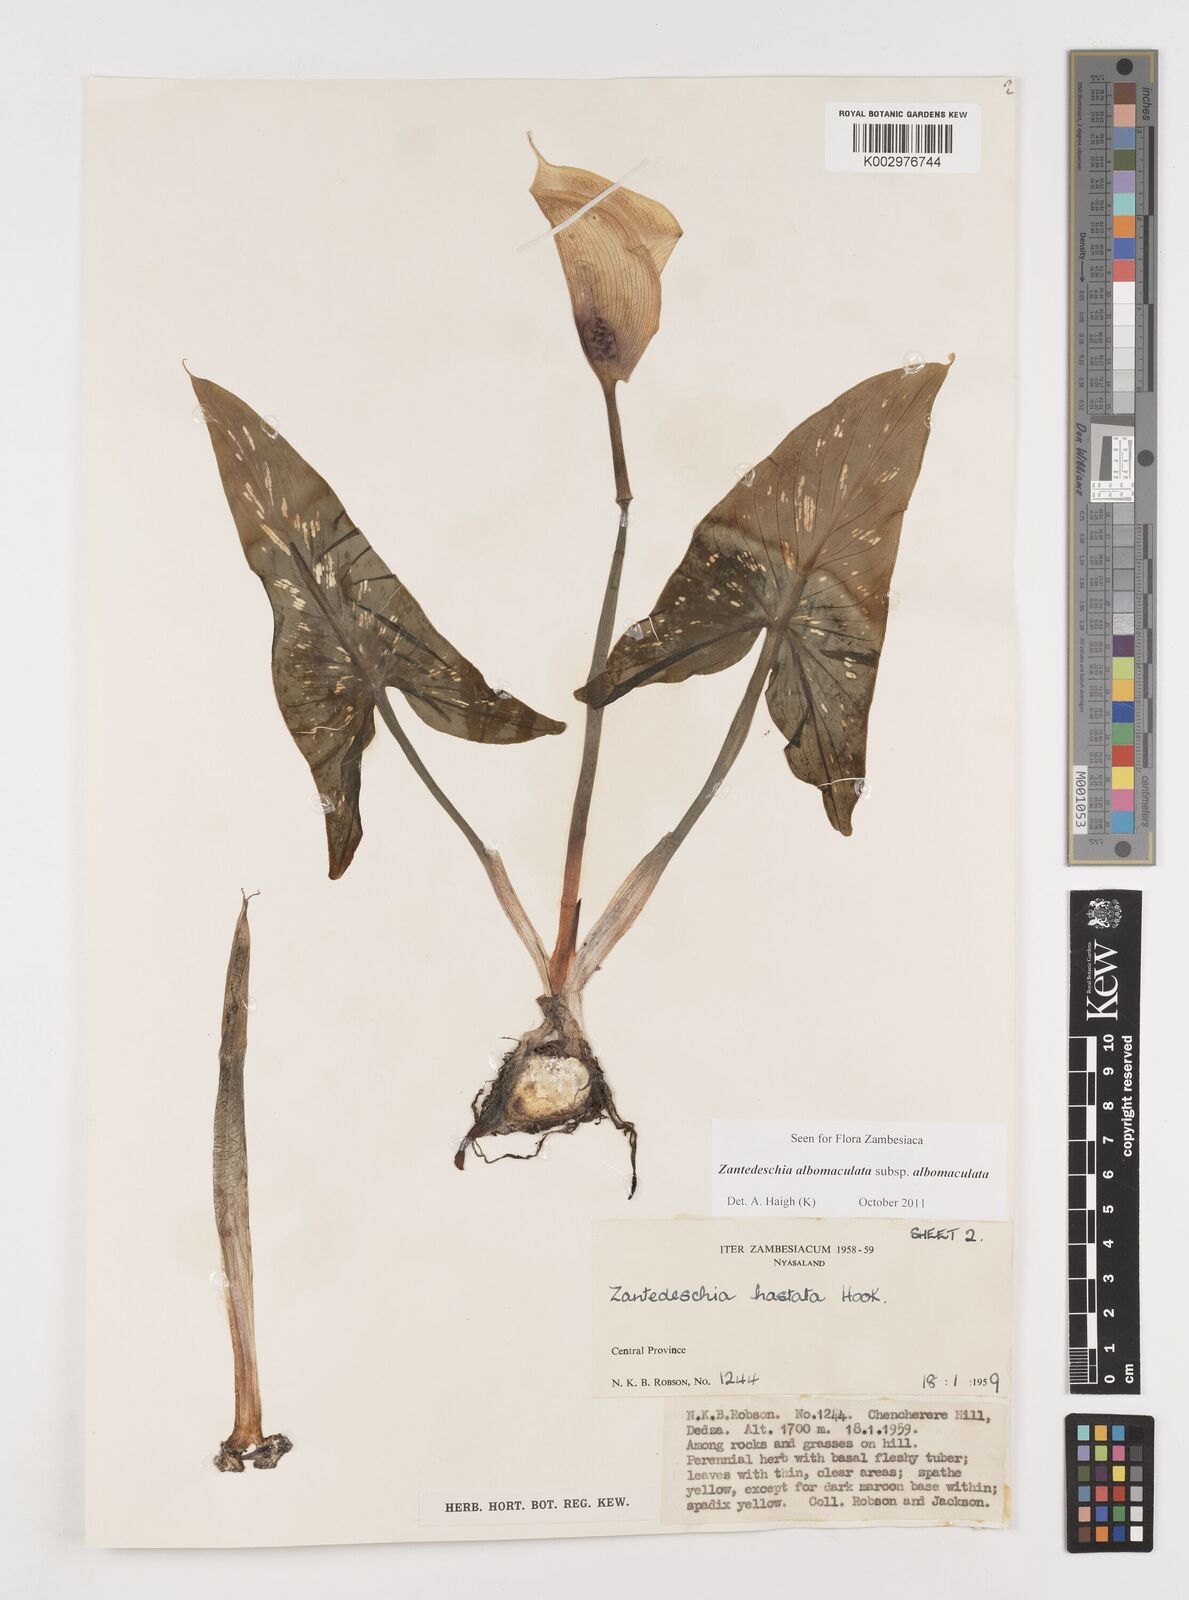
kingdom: Plantae
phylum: Tracheophyta
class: Liliopsida
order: Alismatales
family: Araceae
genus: Zantedeschia
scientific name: Zantedeschia albomaculata
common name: Spotted calla lily
